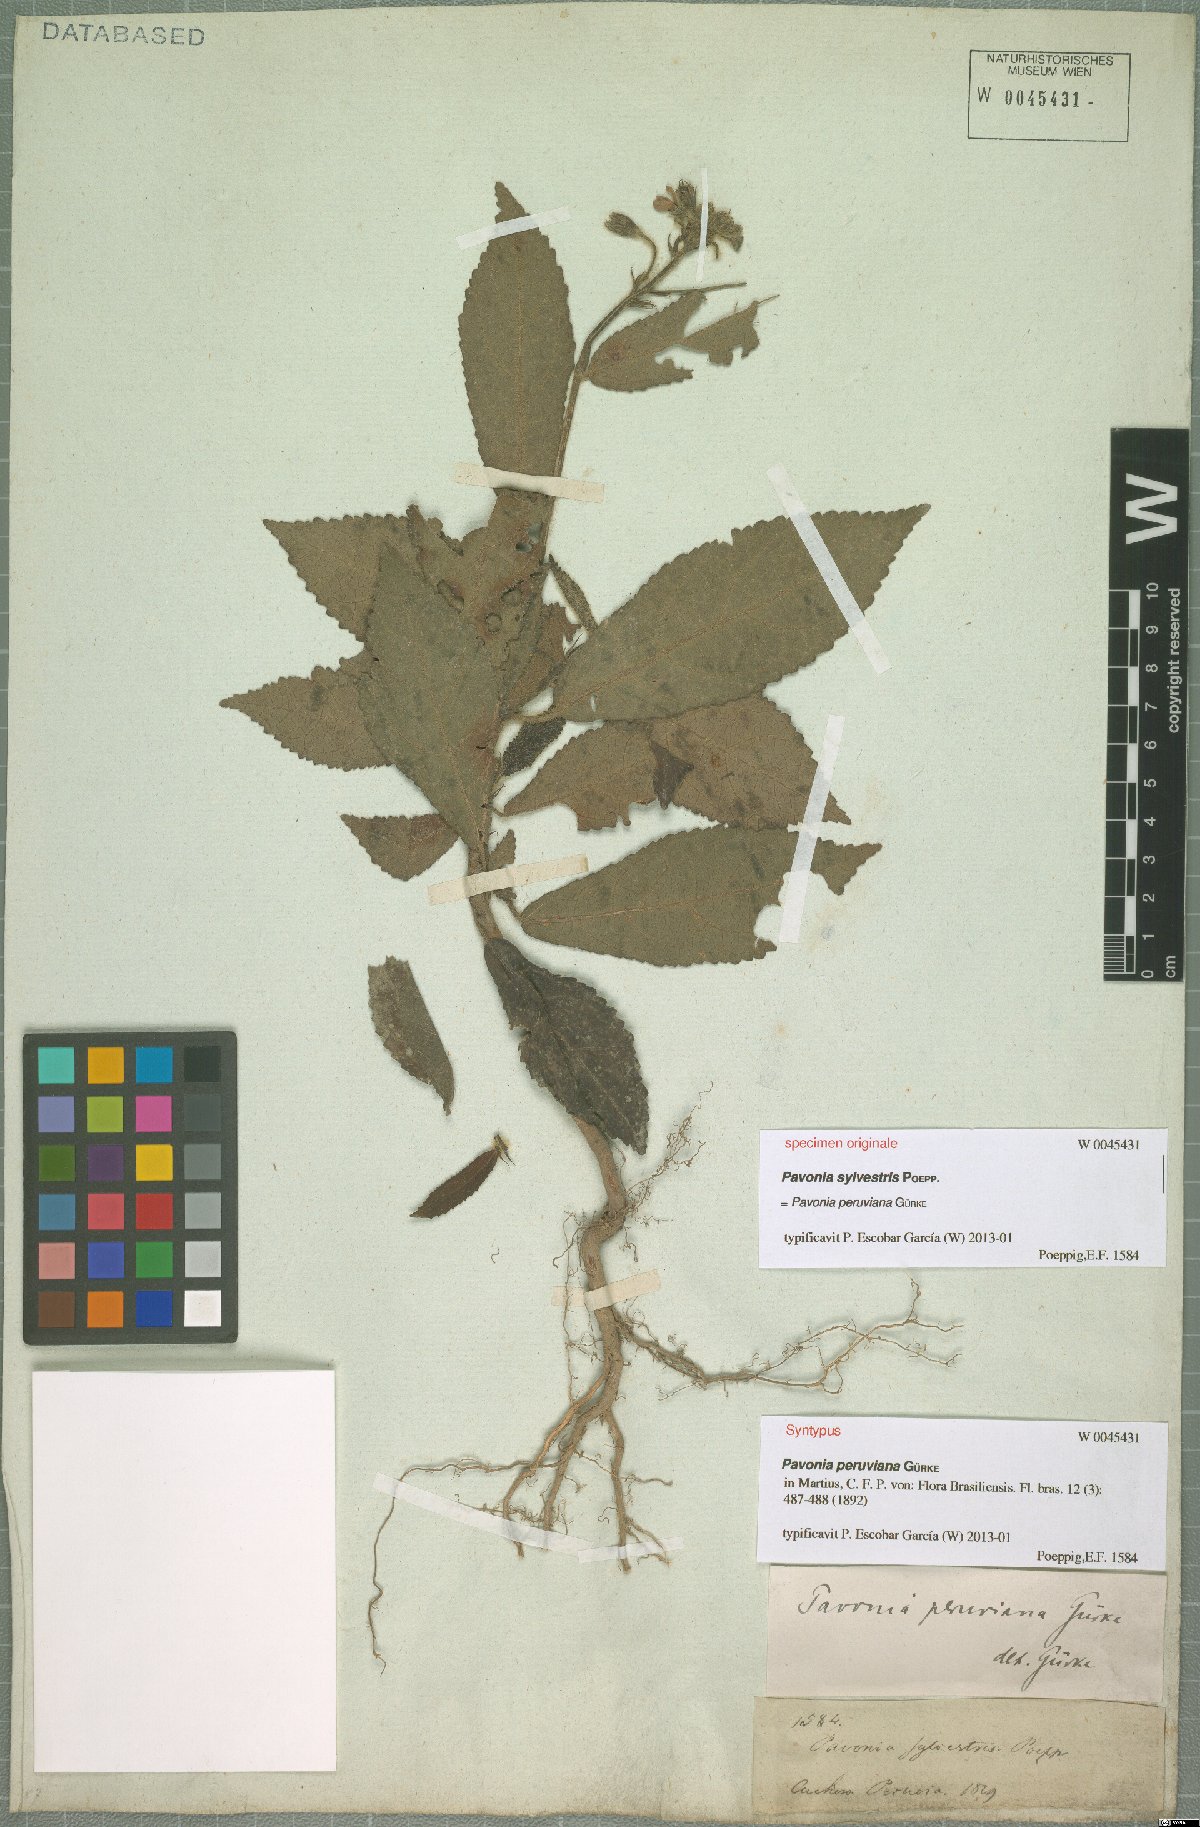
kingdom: Plantae
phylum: Tracheophyta
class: Magnoliopsida
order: Malvales
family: Malvaceae
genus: Pavonia
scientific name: Pavonia peruviana
